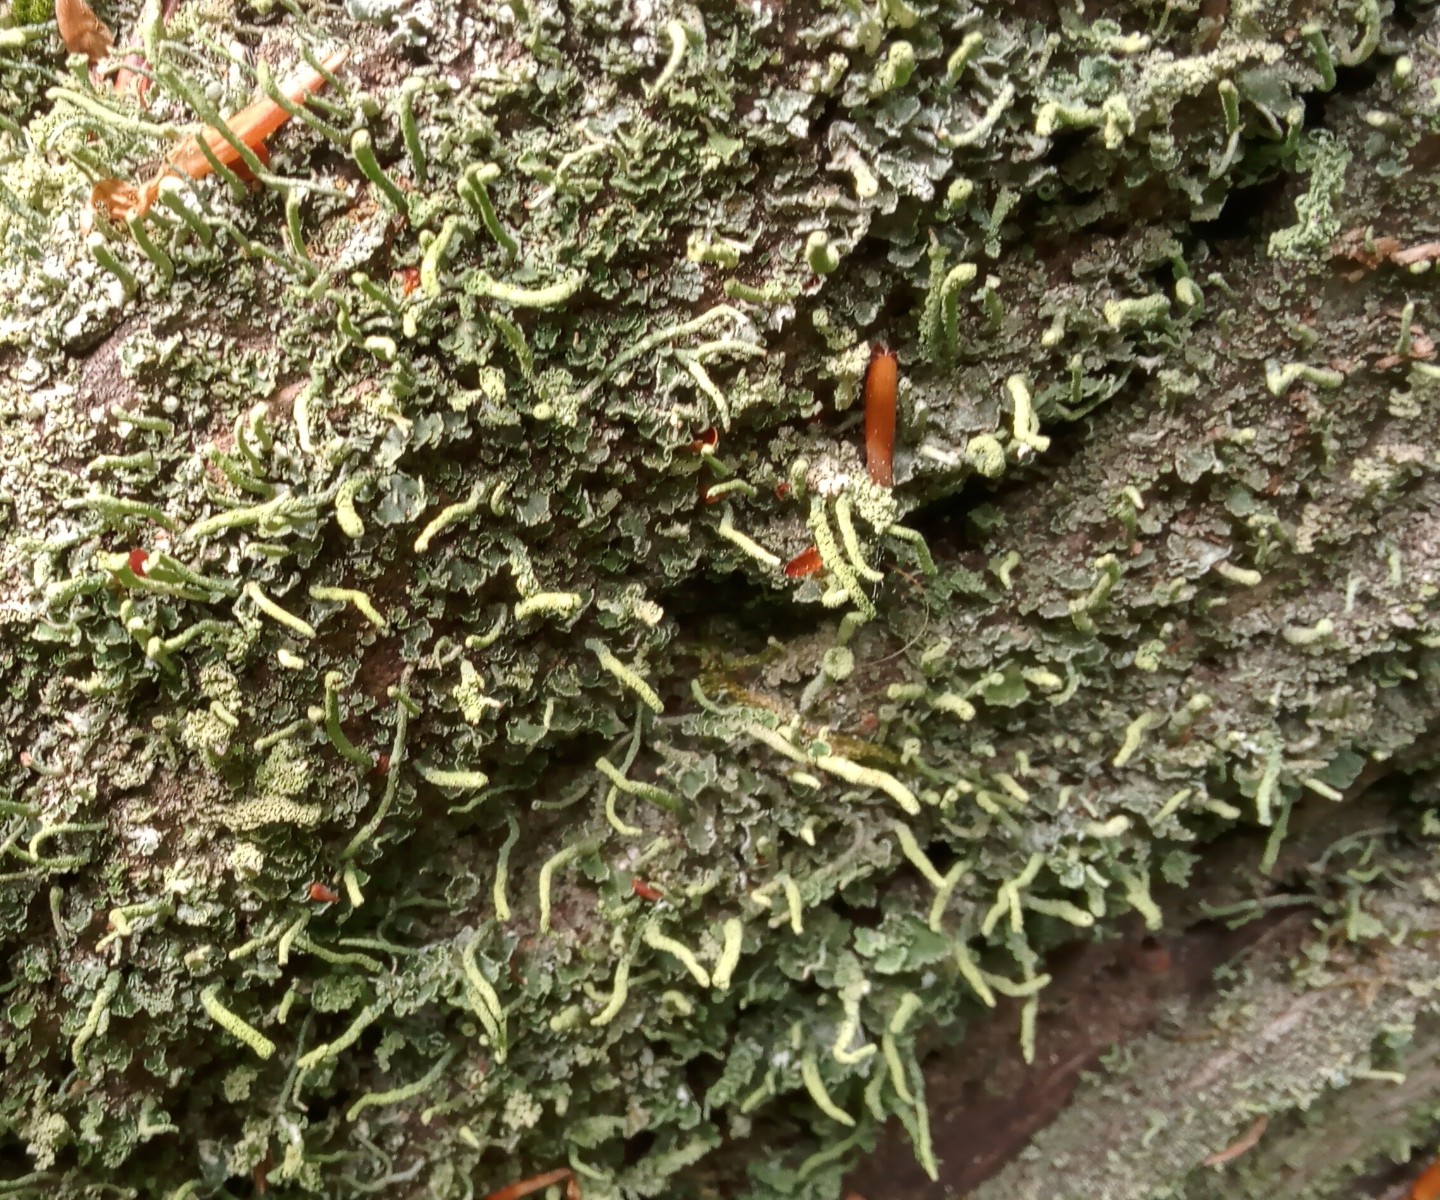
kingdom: Fungi
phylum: Ascomycota
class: Lecanoromycetes
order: Lecanorales
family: Cladoniaceae
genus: Cladonia
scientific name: Cladonia coniocraea
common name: træfods-bægerlav
